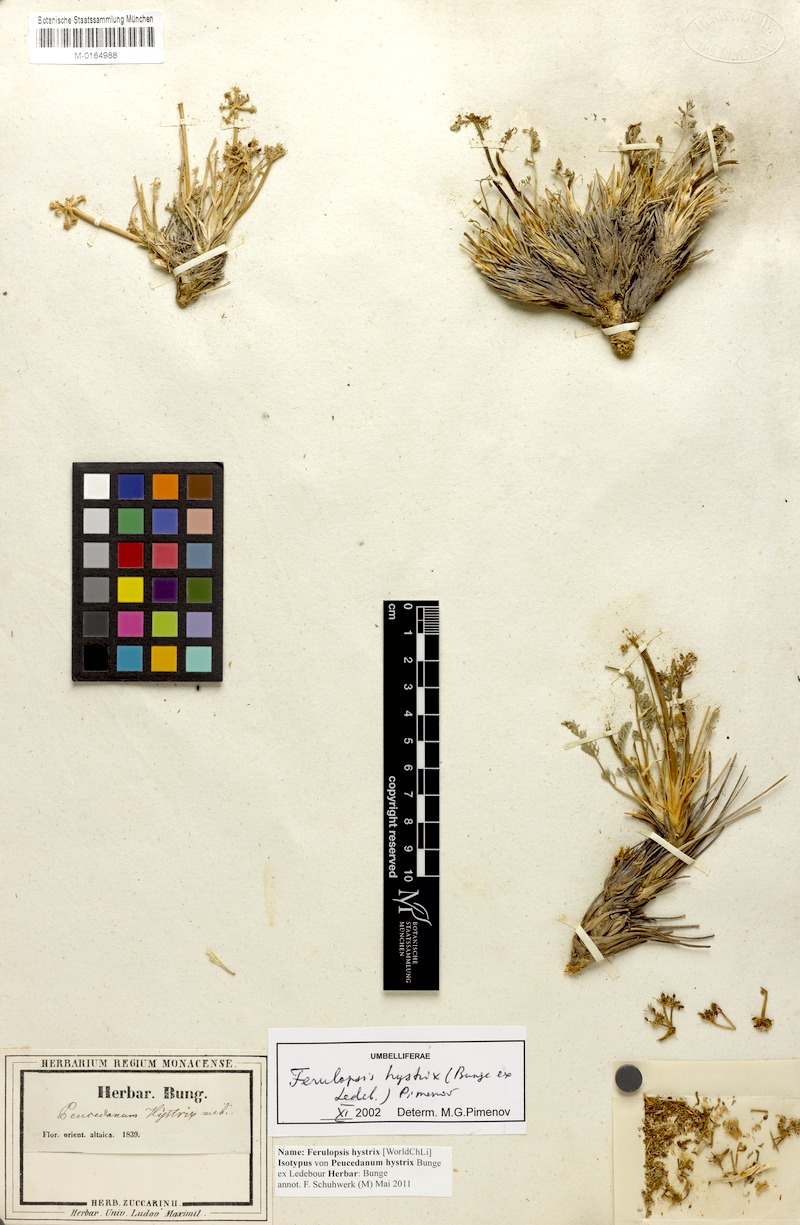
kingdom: Plantae
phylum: Tracheophyta
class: Magnoliopsida
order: Apiales
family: Apiaceae
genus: Ferulopsis
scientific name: Ferulopsis hystrix
